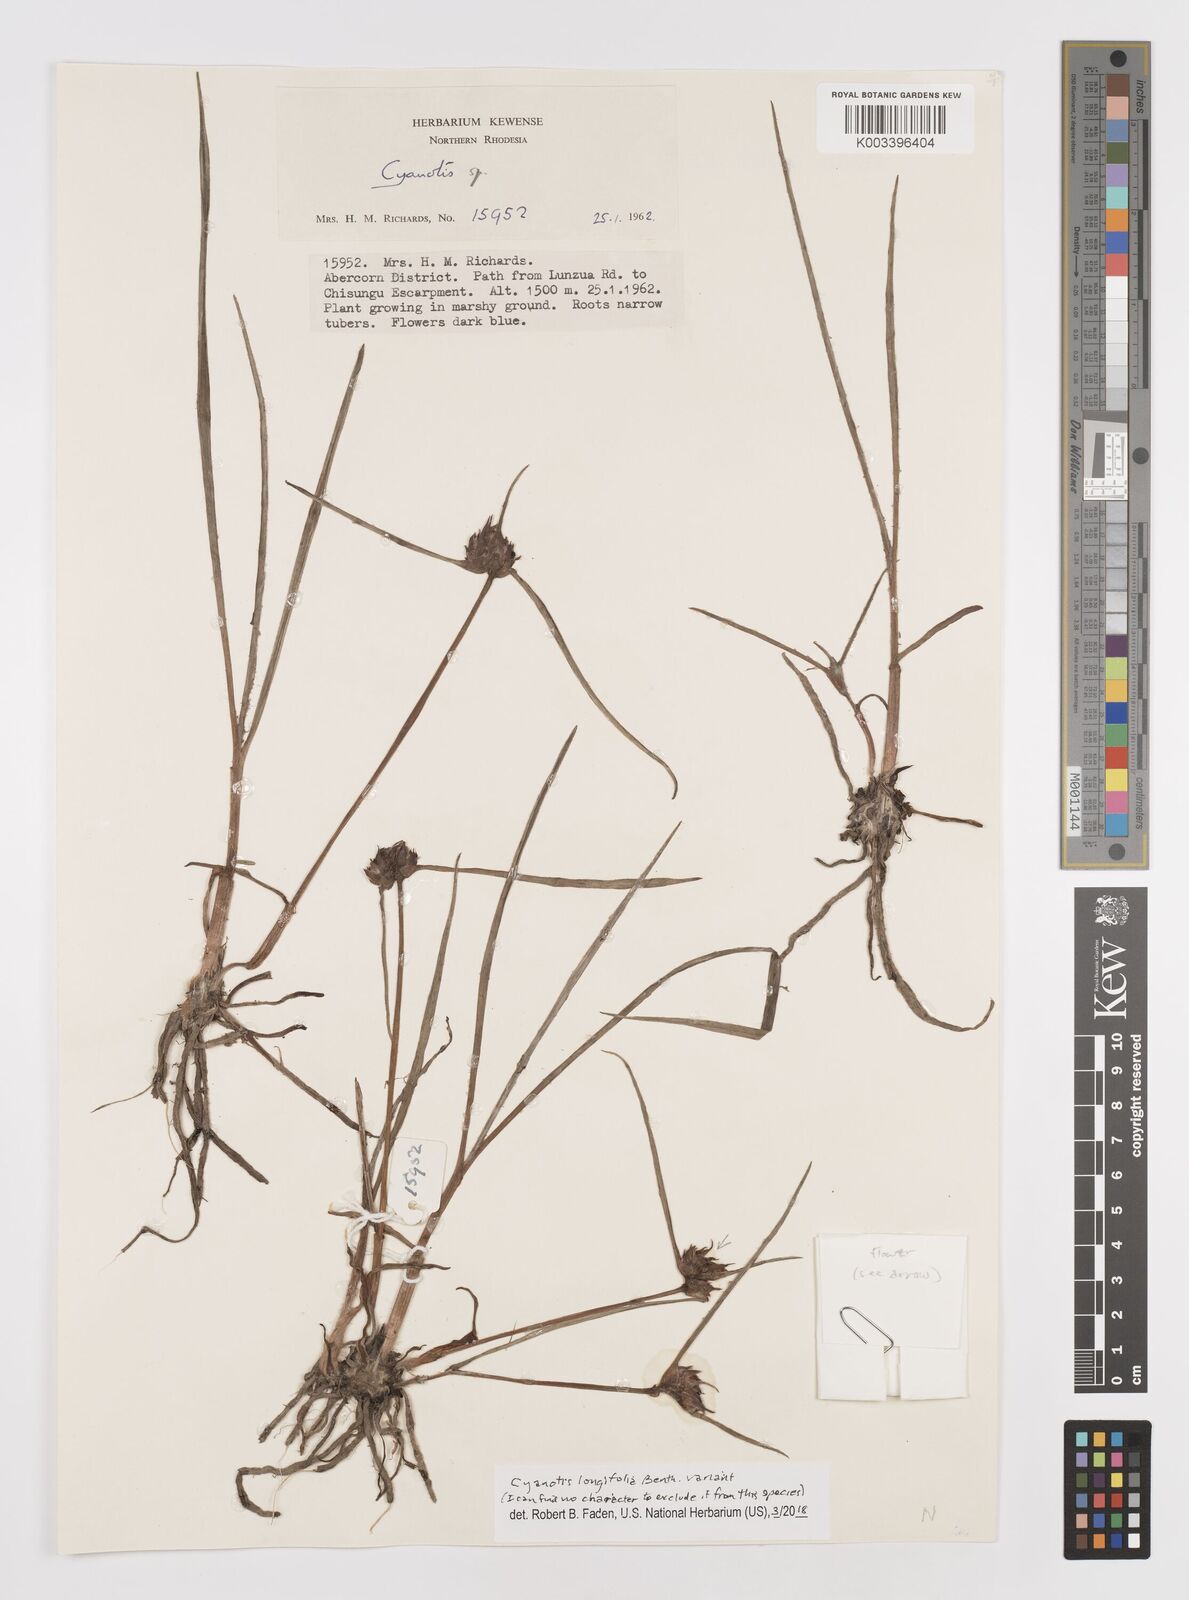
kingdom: Plantae
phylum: Tracheophyta
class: Liliopsida
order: Commelinales
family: Commelinaceae
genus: Cyanotis
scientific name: Cyanotis longifolia
